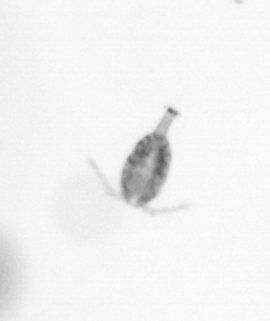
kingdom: Animalia
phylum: Arthropoda
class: Copepoda
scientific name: Copepoda
